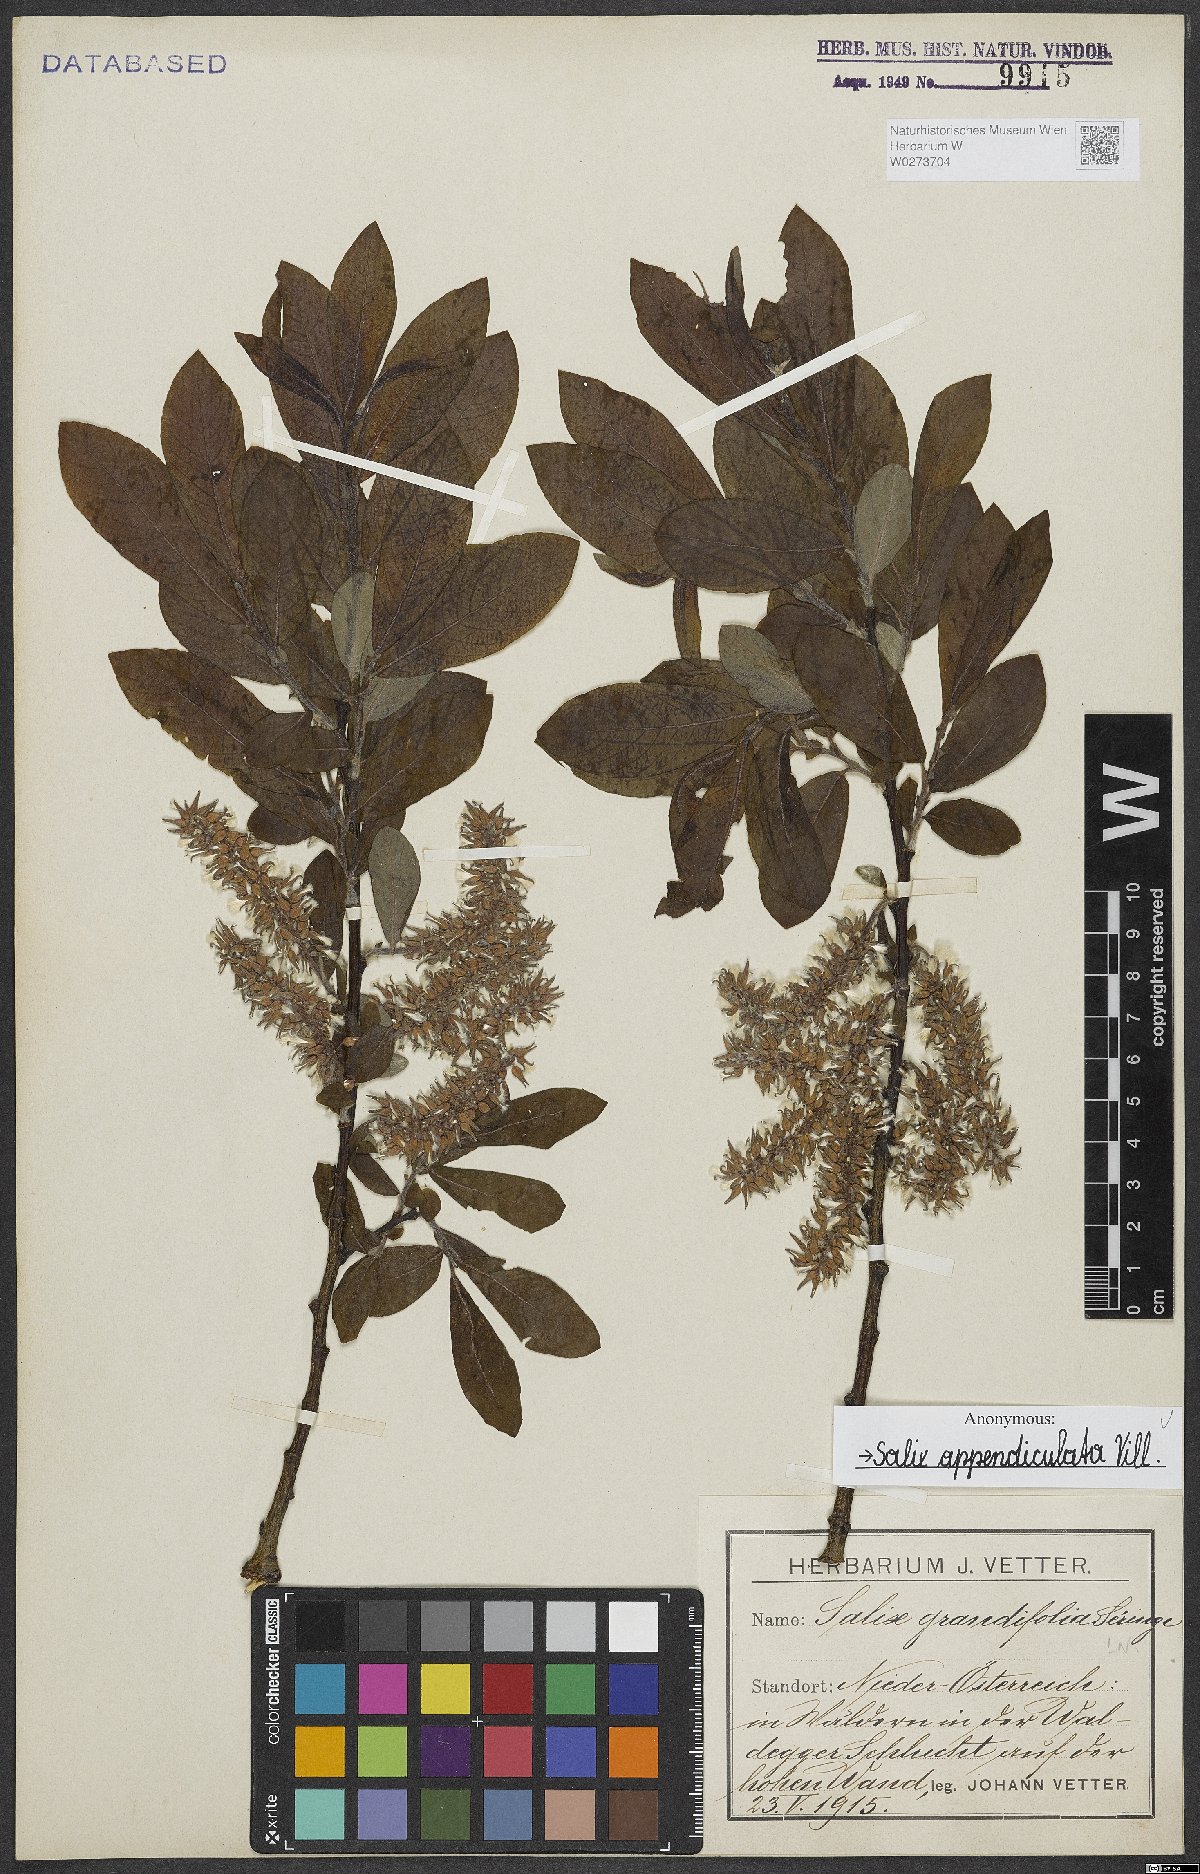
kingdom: Plantae
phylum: Tracheophyta
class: Magnoliopsida
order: Malpighiales
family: Salicaceae
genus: Salix
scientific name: Salix appendiculata
